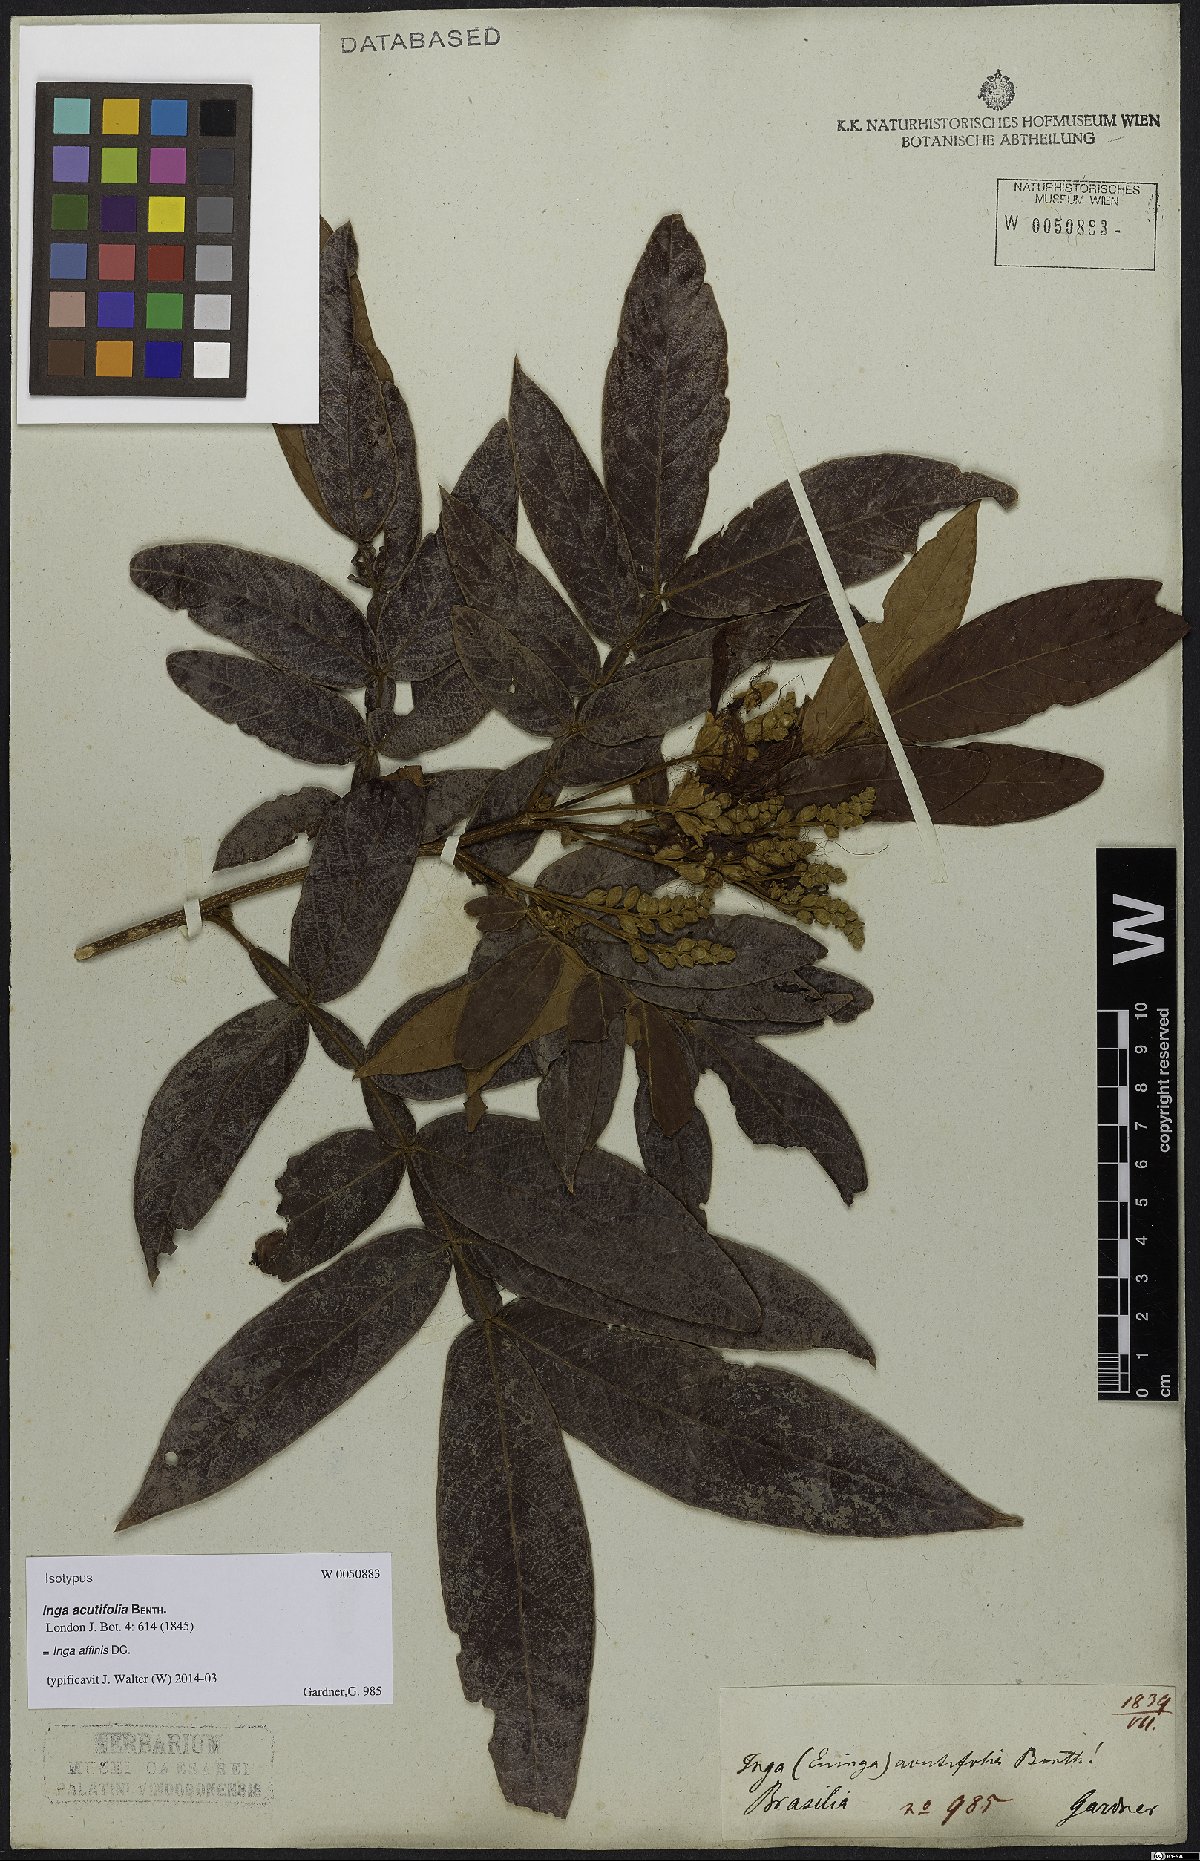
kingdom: Plantae
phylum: Tracheophyta
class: Magnoliopsida
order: Fabales
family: Fabaceae
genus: Inga
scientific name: Inga affinis
